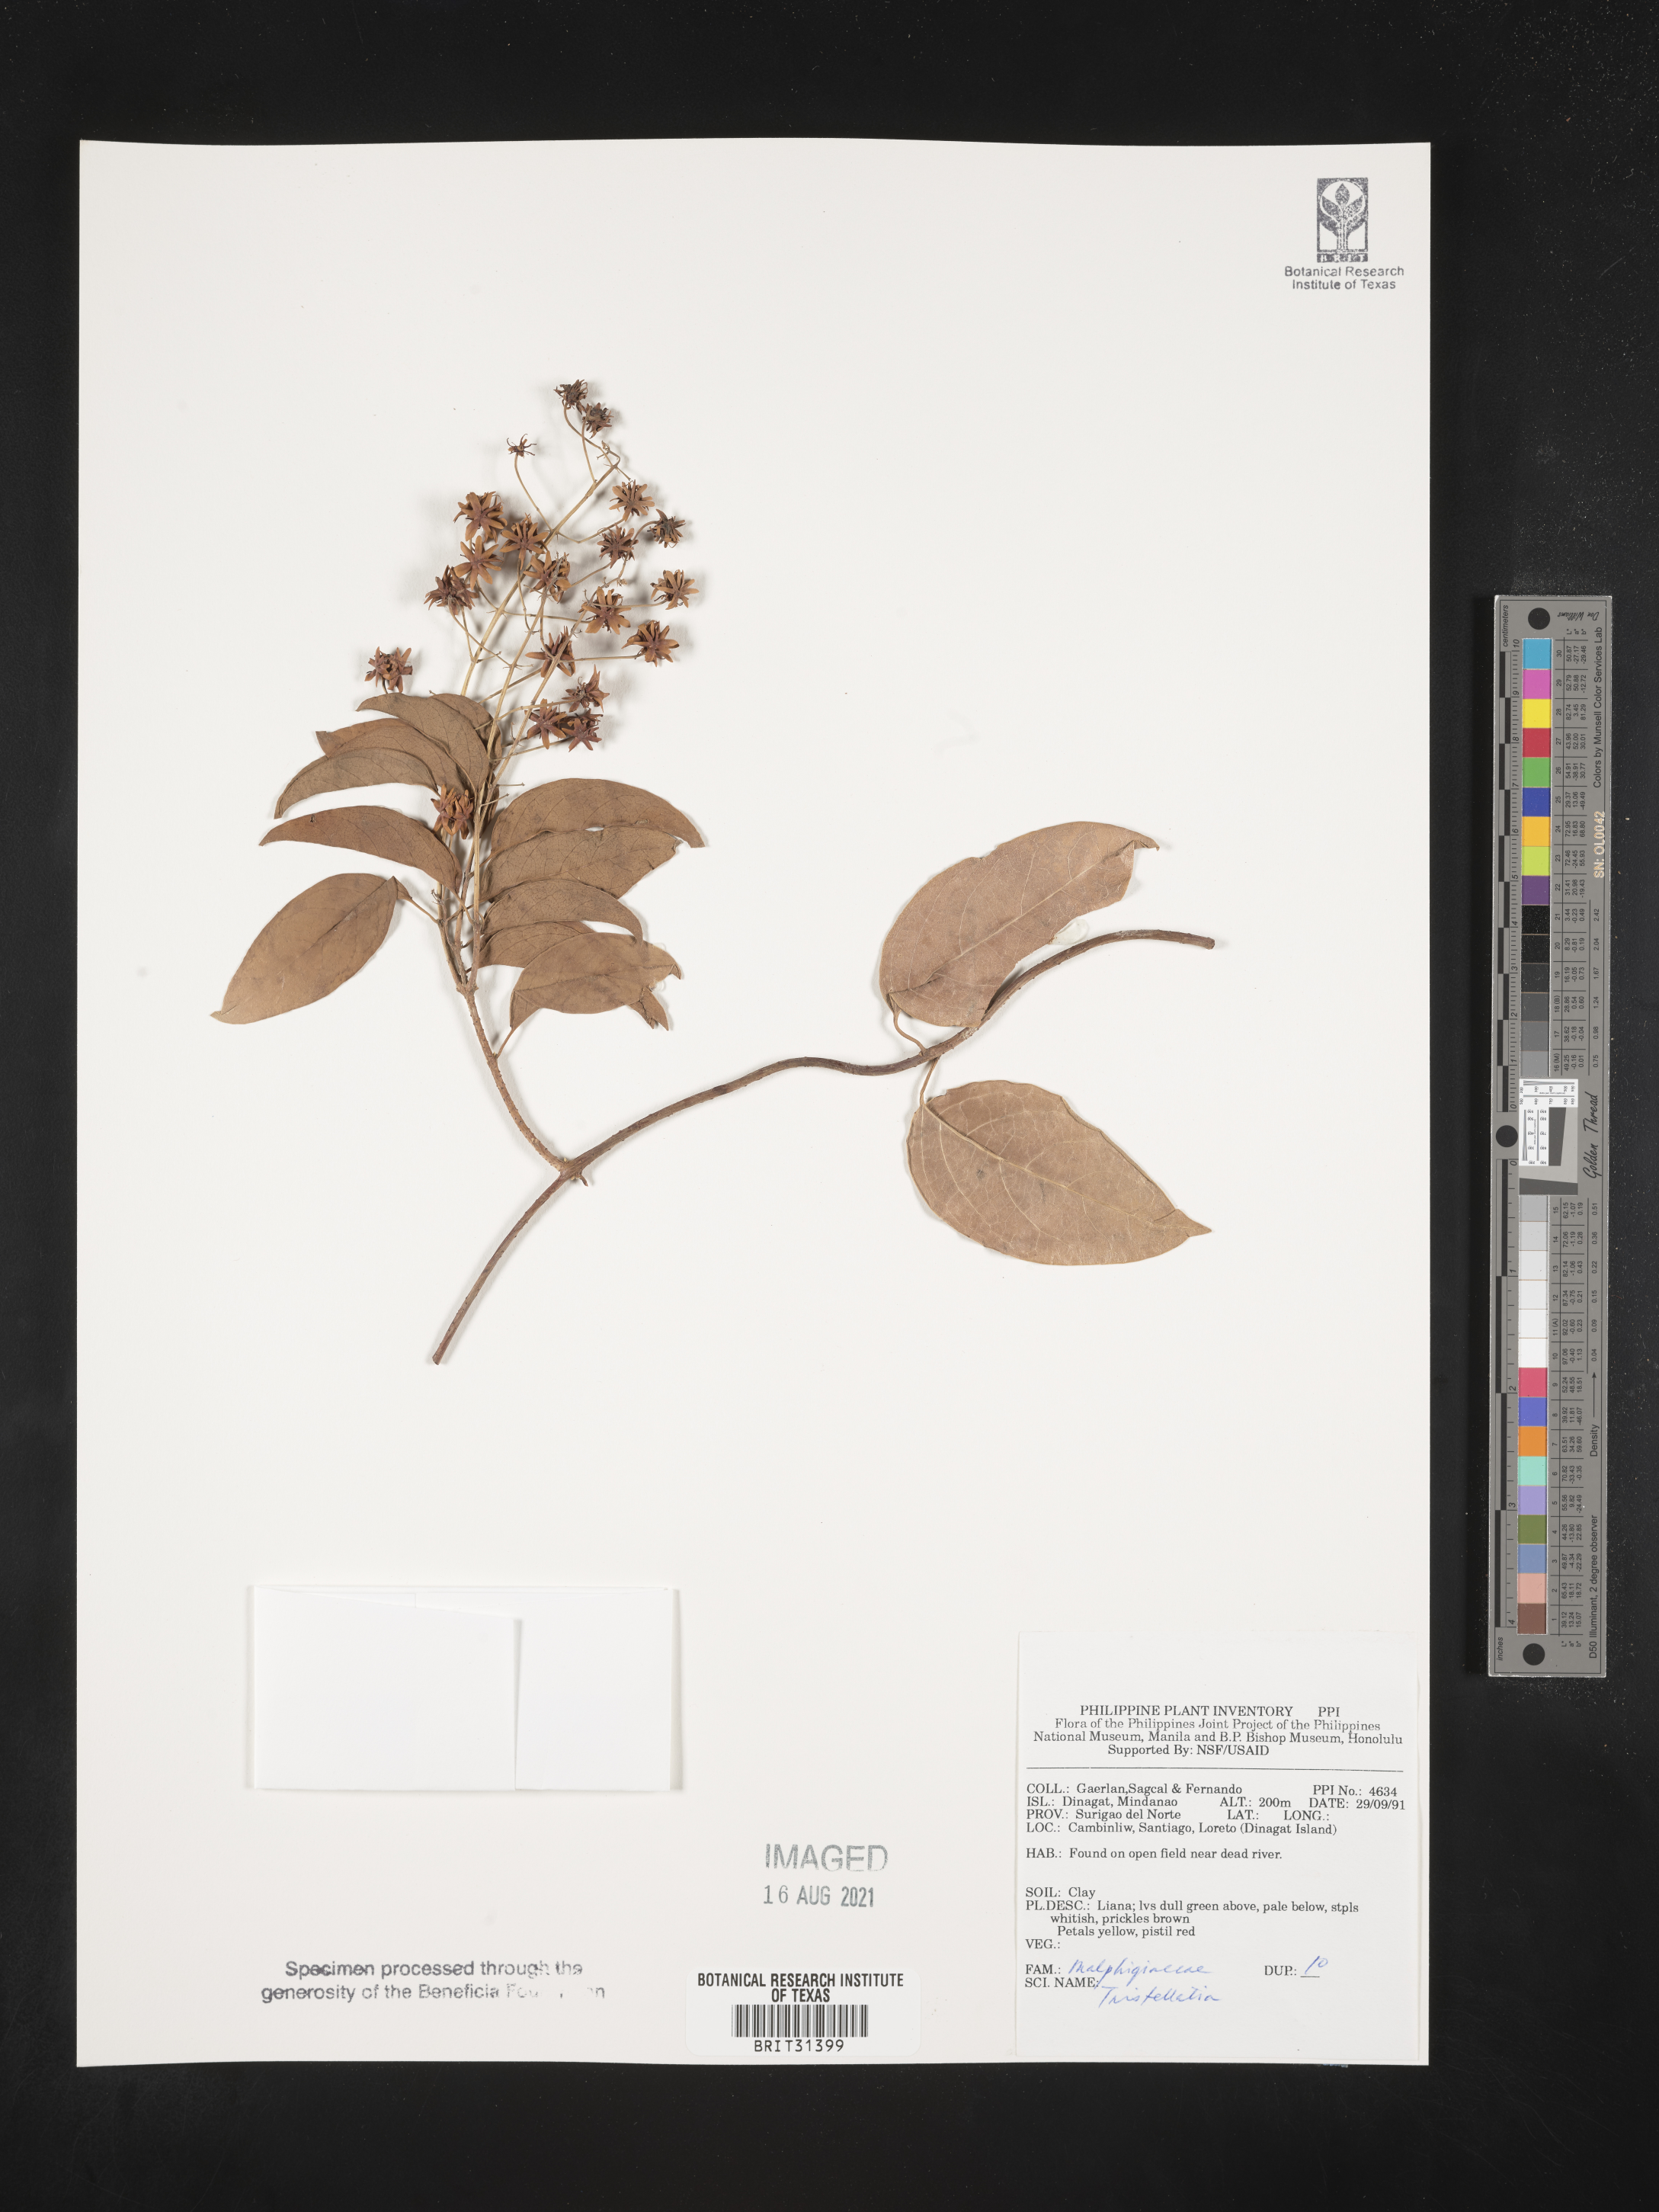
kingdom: Plantae
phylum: Tracheophyta
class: Magnoliopsida
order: Malpighiales
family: Malpighiaceae
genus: Tristellateia
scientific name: Tristellateia
